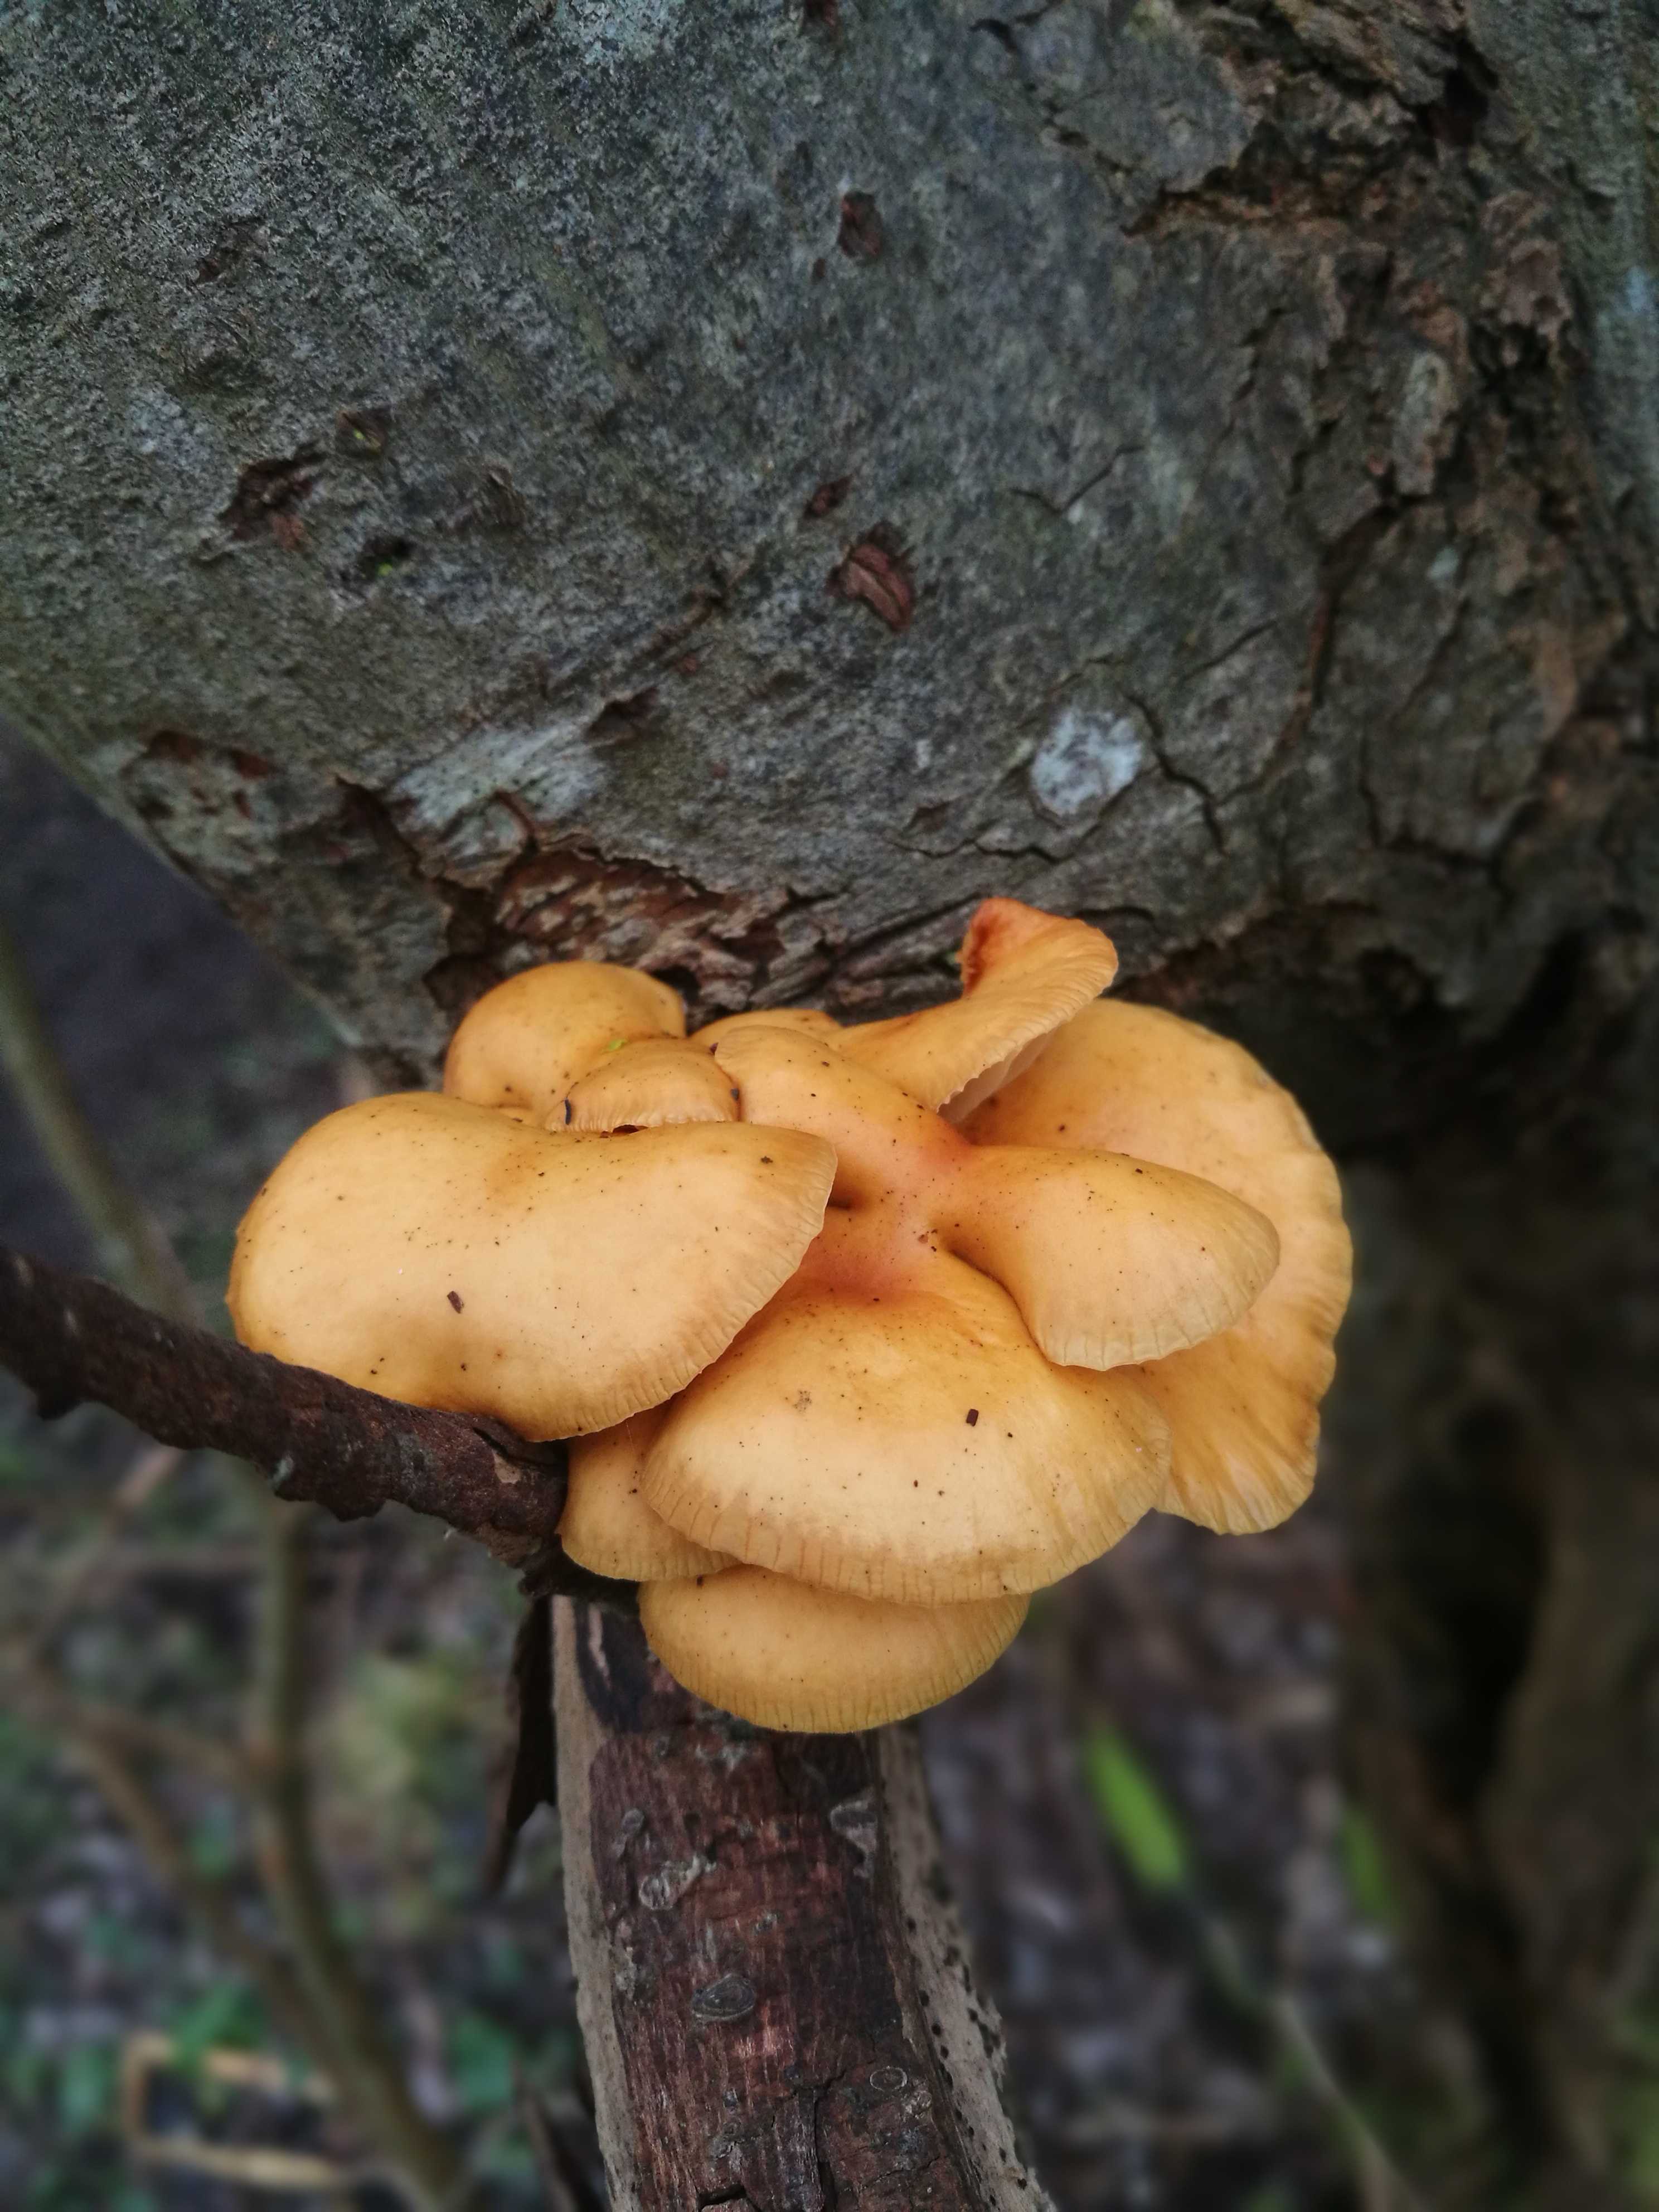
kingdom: Fungi
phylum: Basidiomycota
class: Agaricomycetes
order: Agaricales
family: Physalacriaceae
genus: Flammulina
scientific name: Flammulina velutipes
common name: gul fløjlsfod
